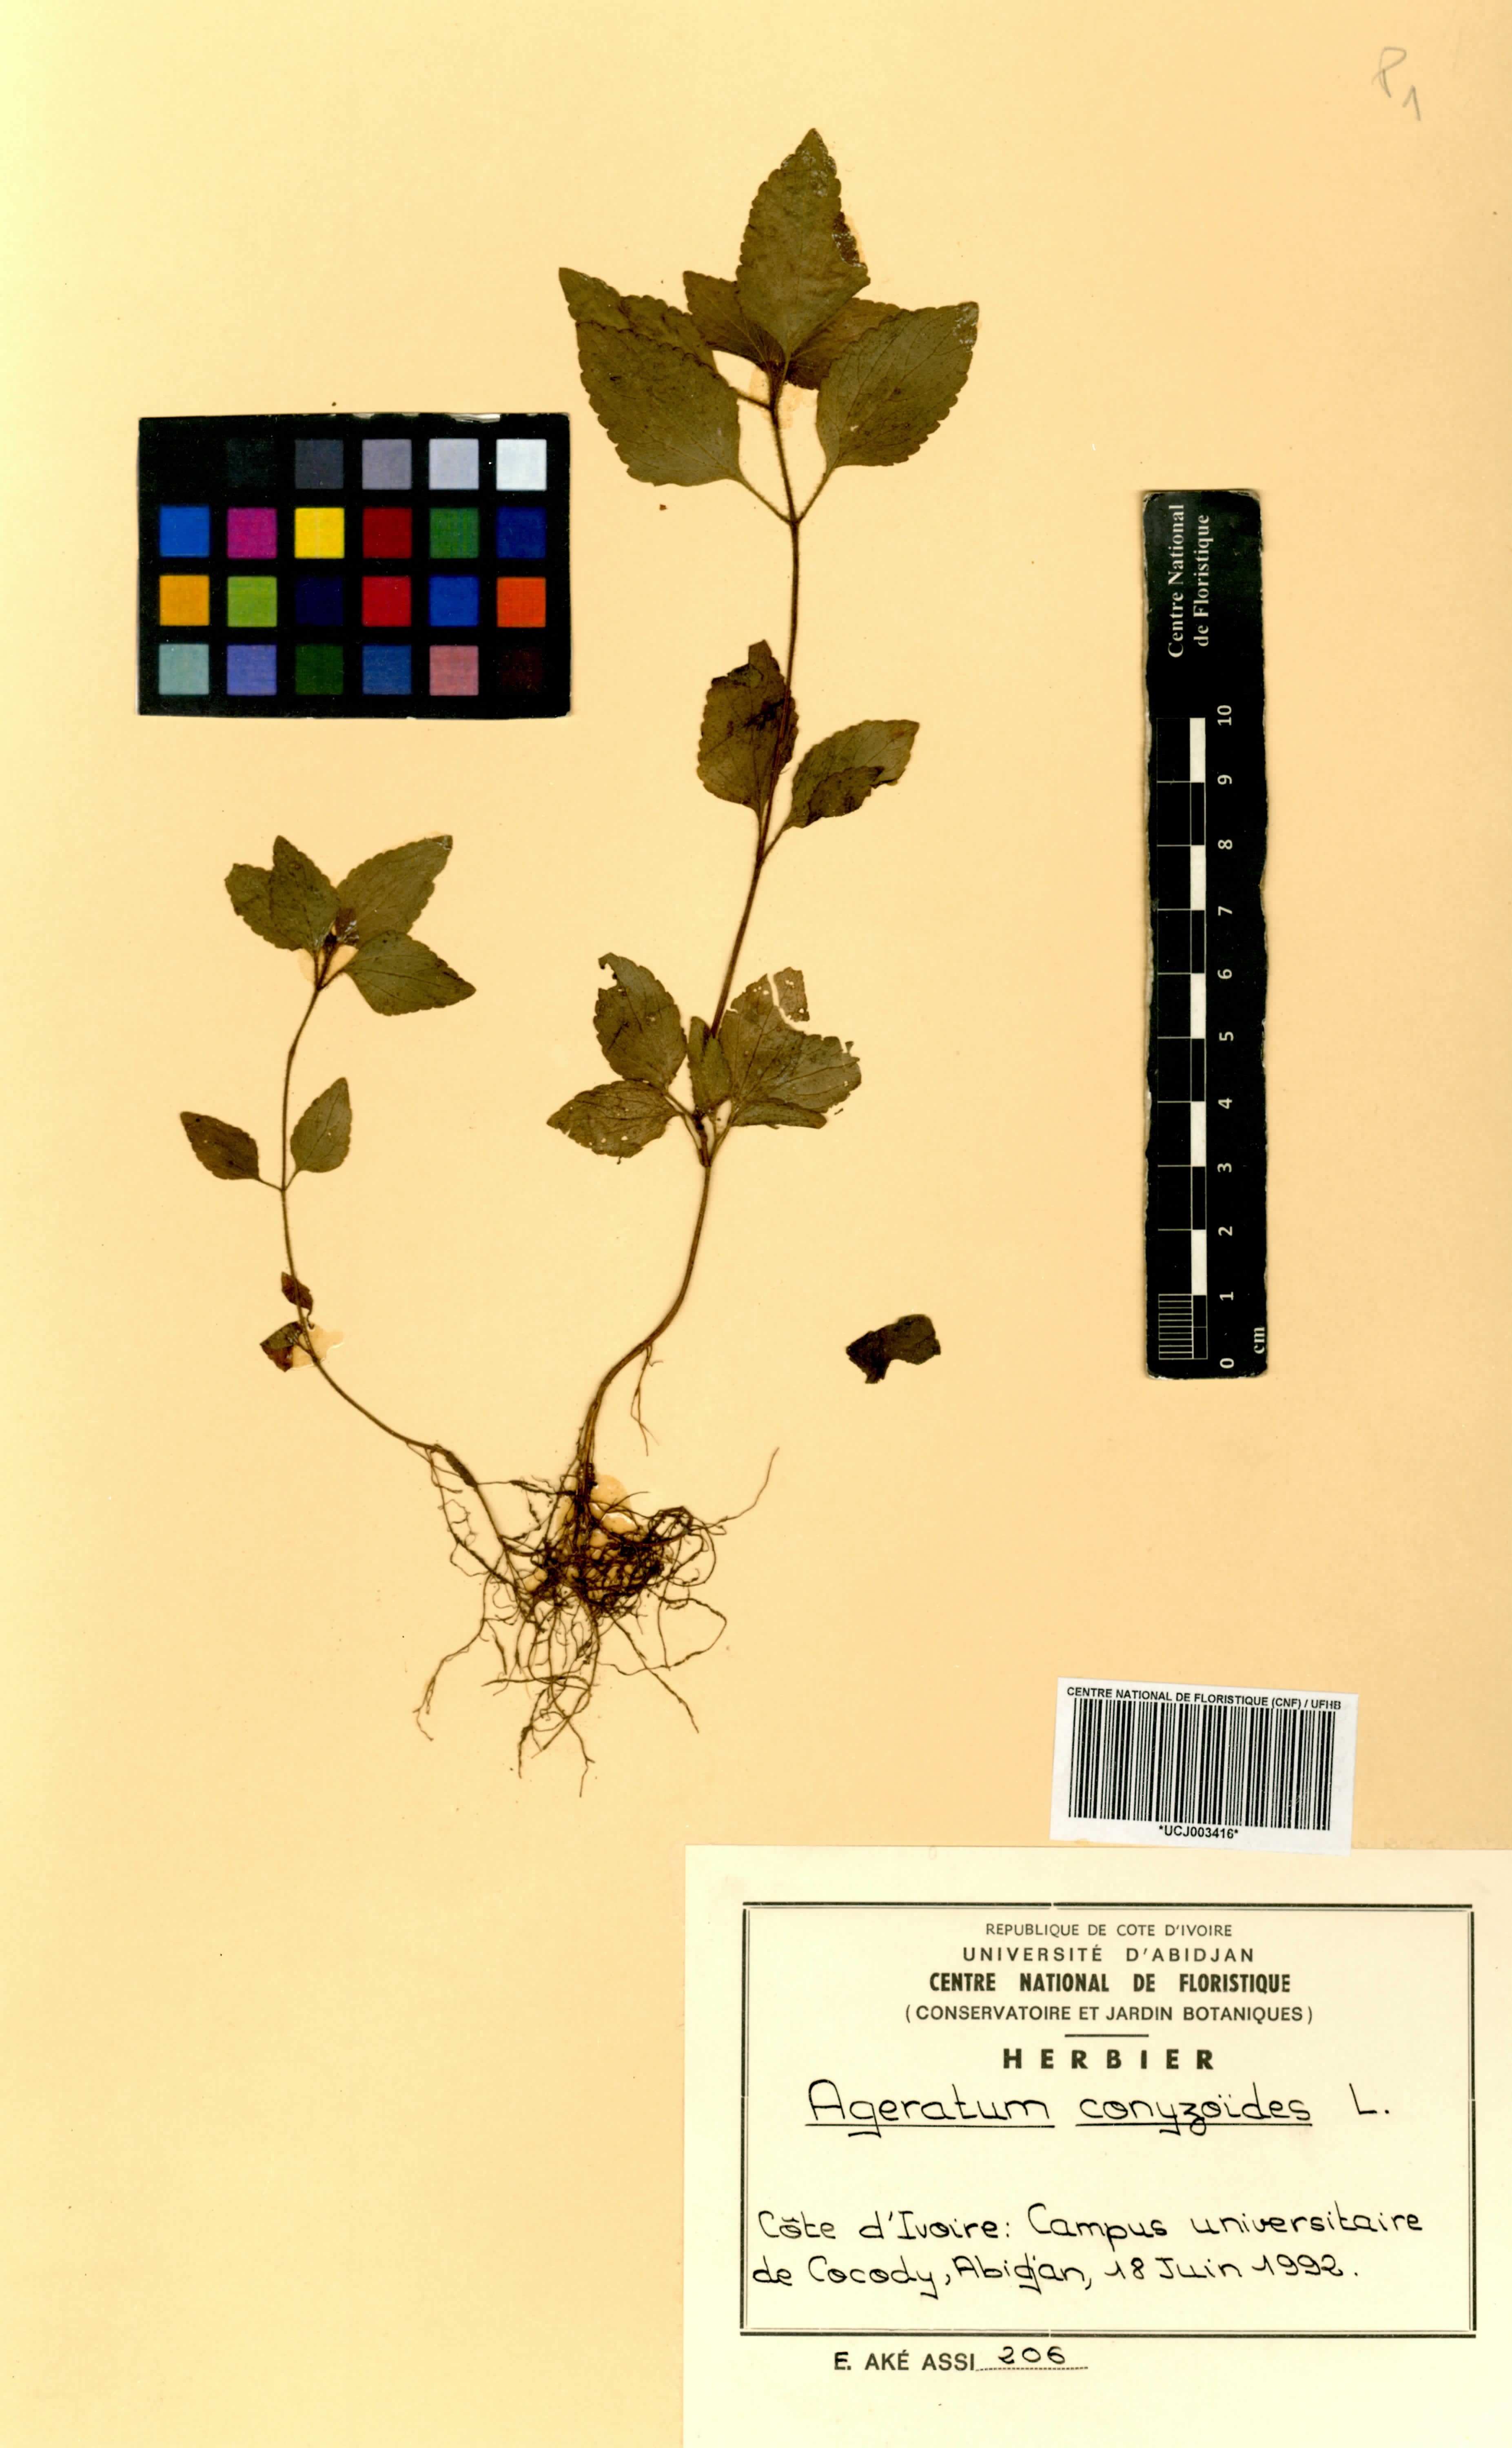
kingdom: Plantae
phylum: Tracheophyta
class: Magnoliopsida
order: Asterales
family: Asteraceae
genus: Ageratum
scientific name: Ageratum conyzoides
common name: Tropical whiteweed
